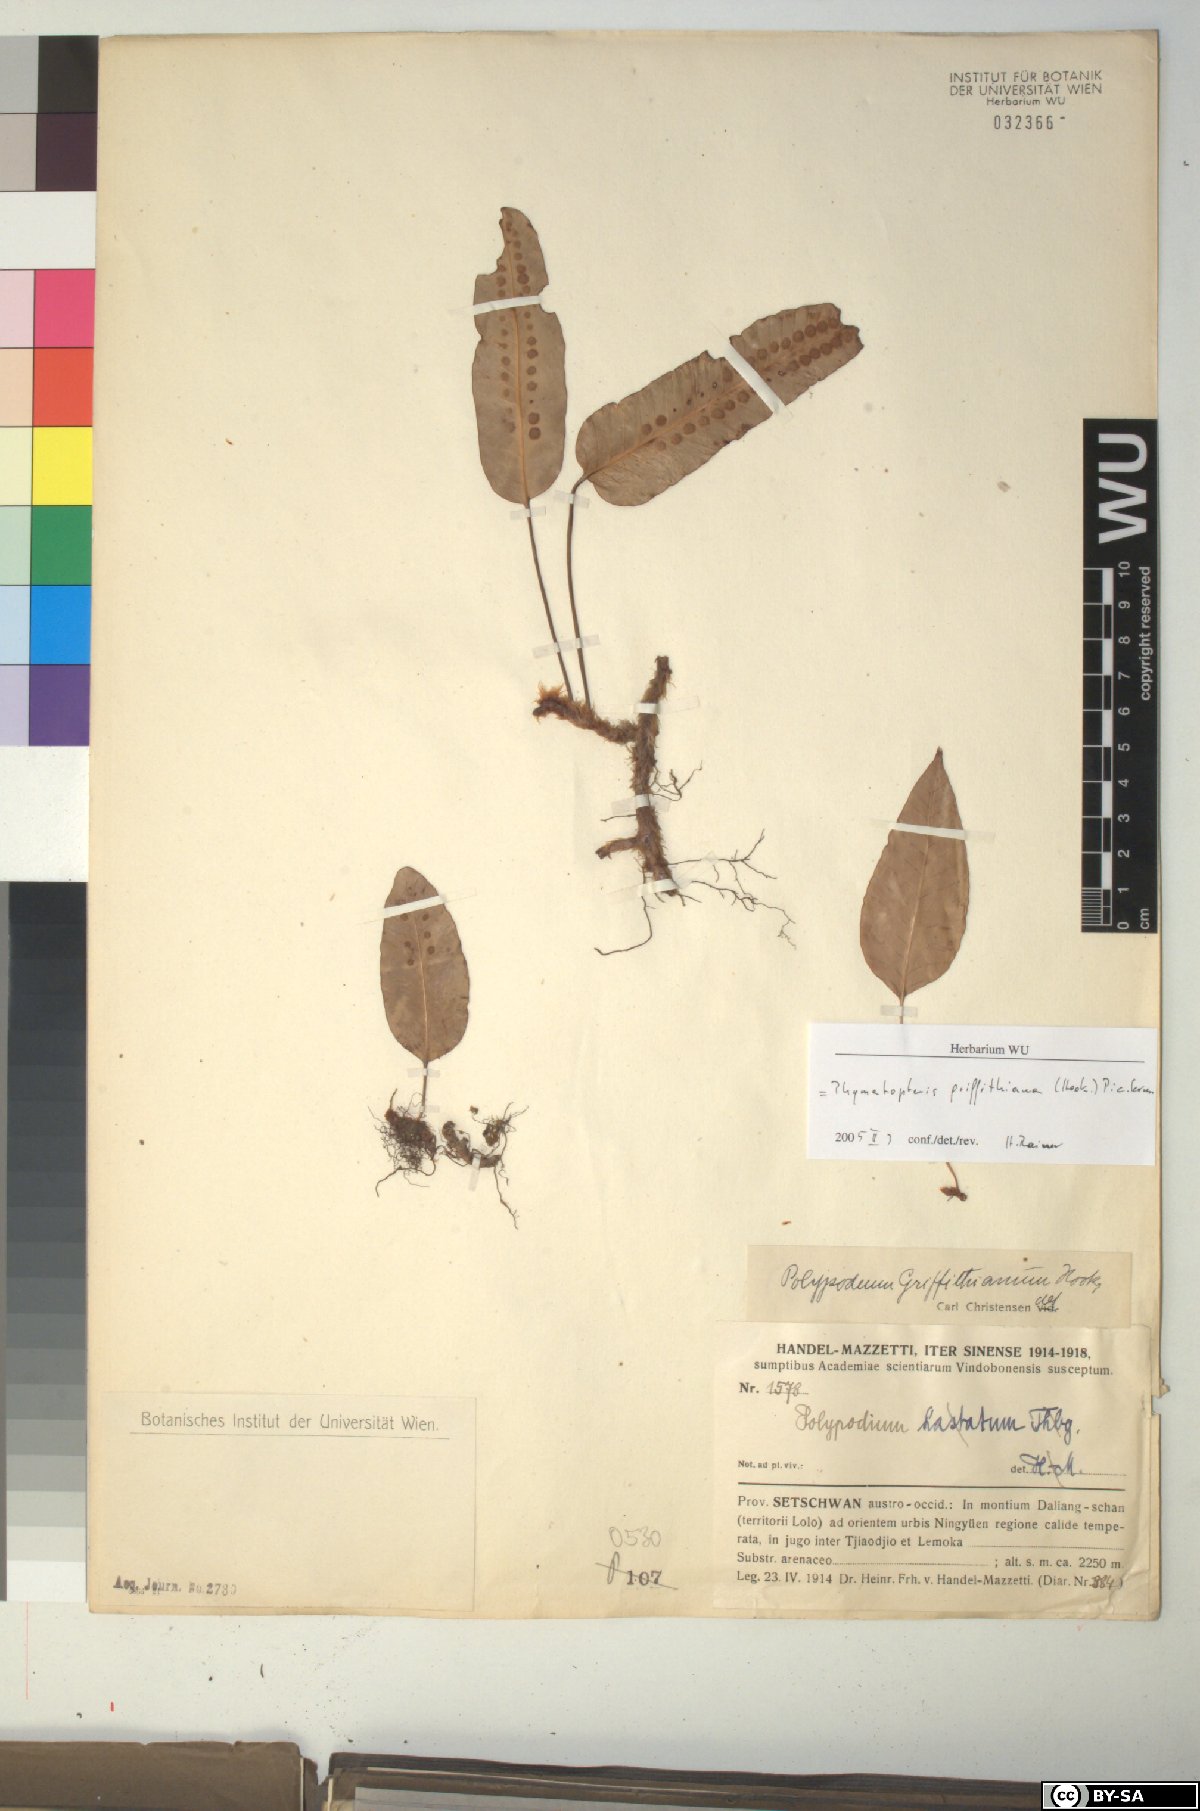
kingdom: Plantae
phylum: Tracheophyta
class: Polypodiopsida
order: Polypodiales
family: Polypodiaceae
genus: Selliguea
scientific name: Selliguea griffithiana
